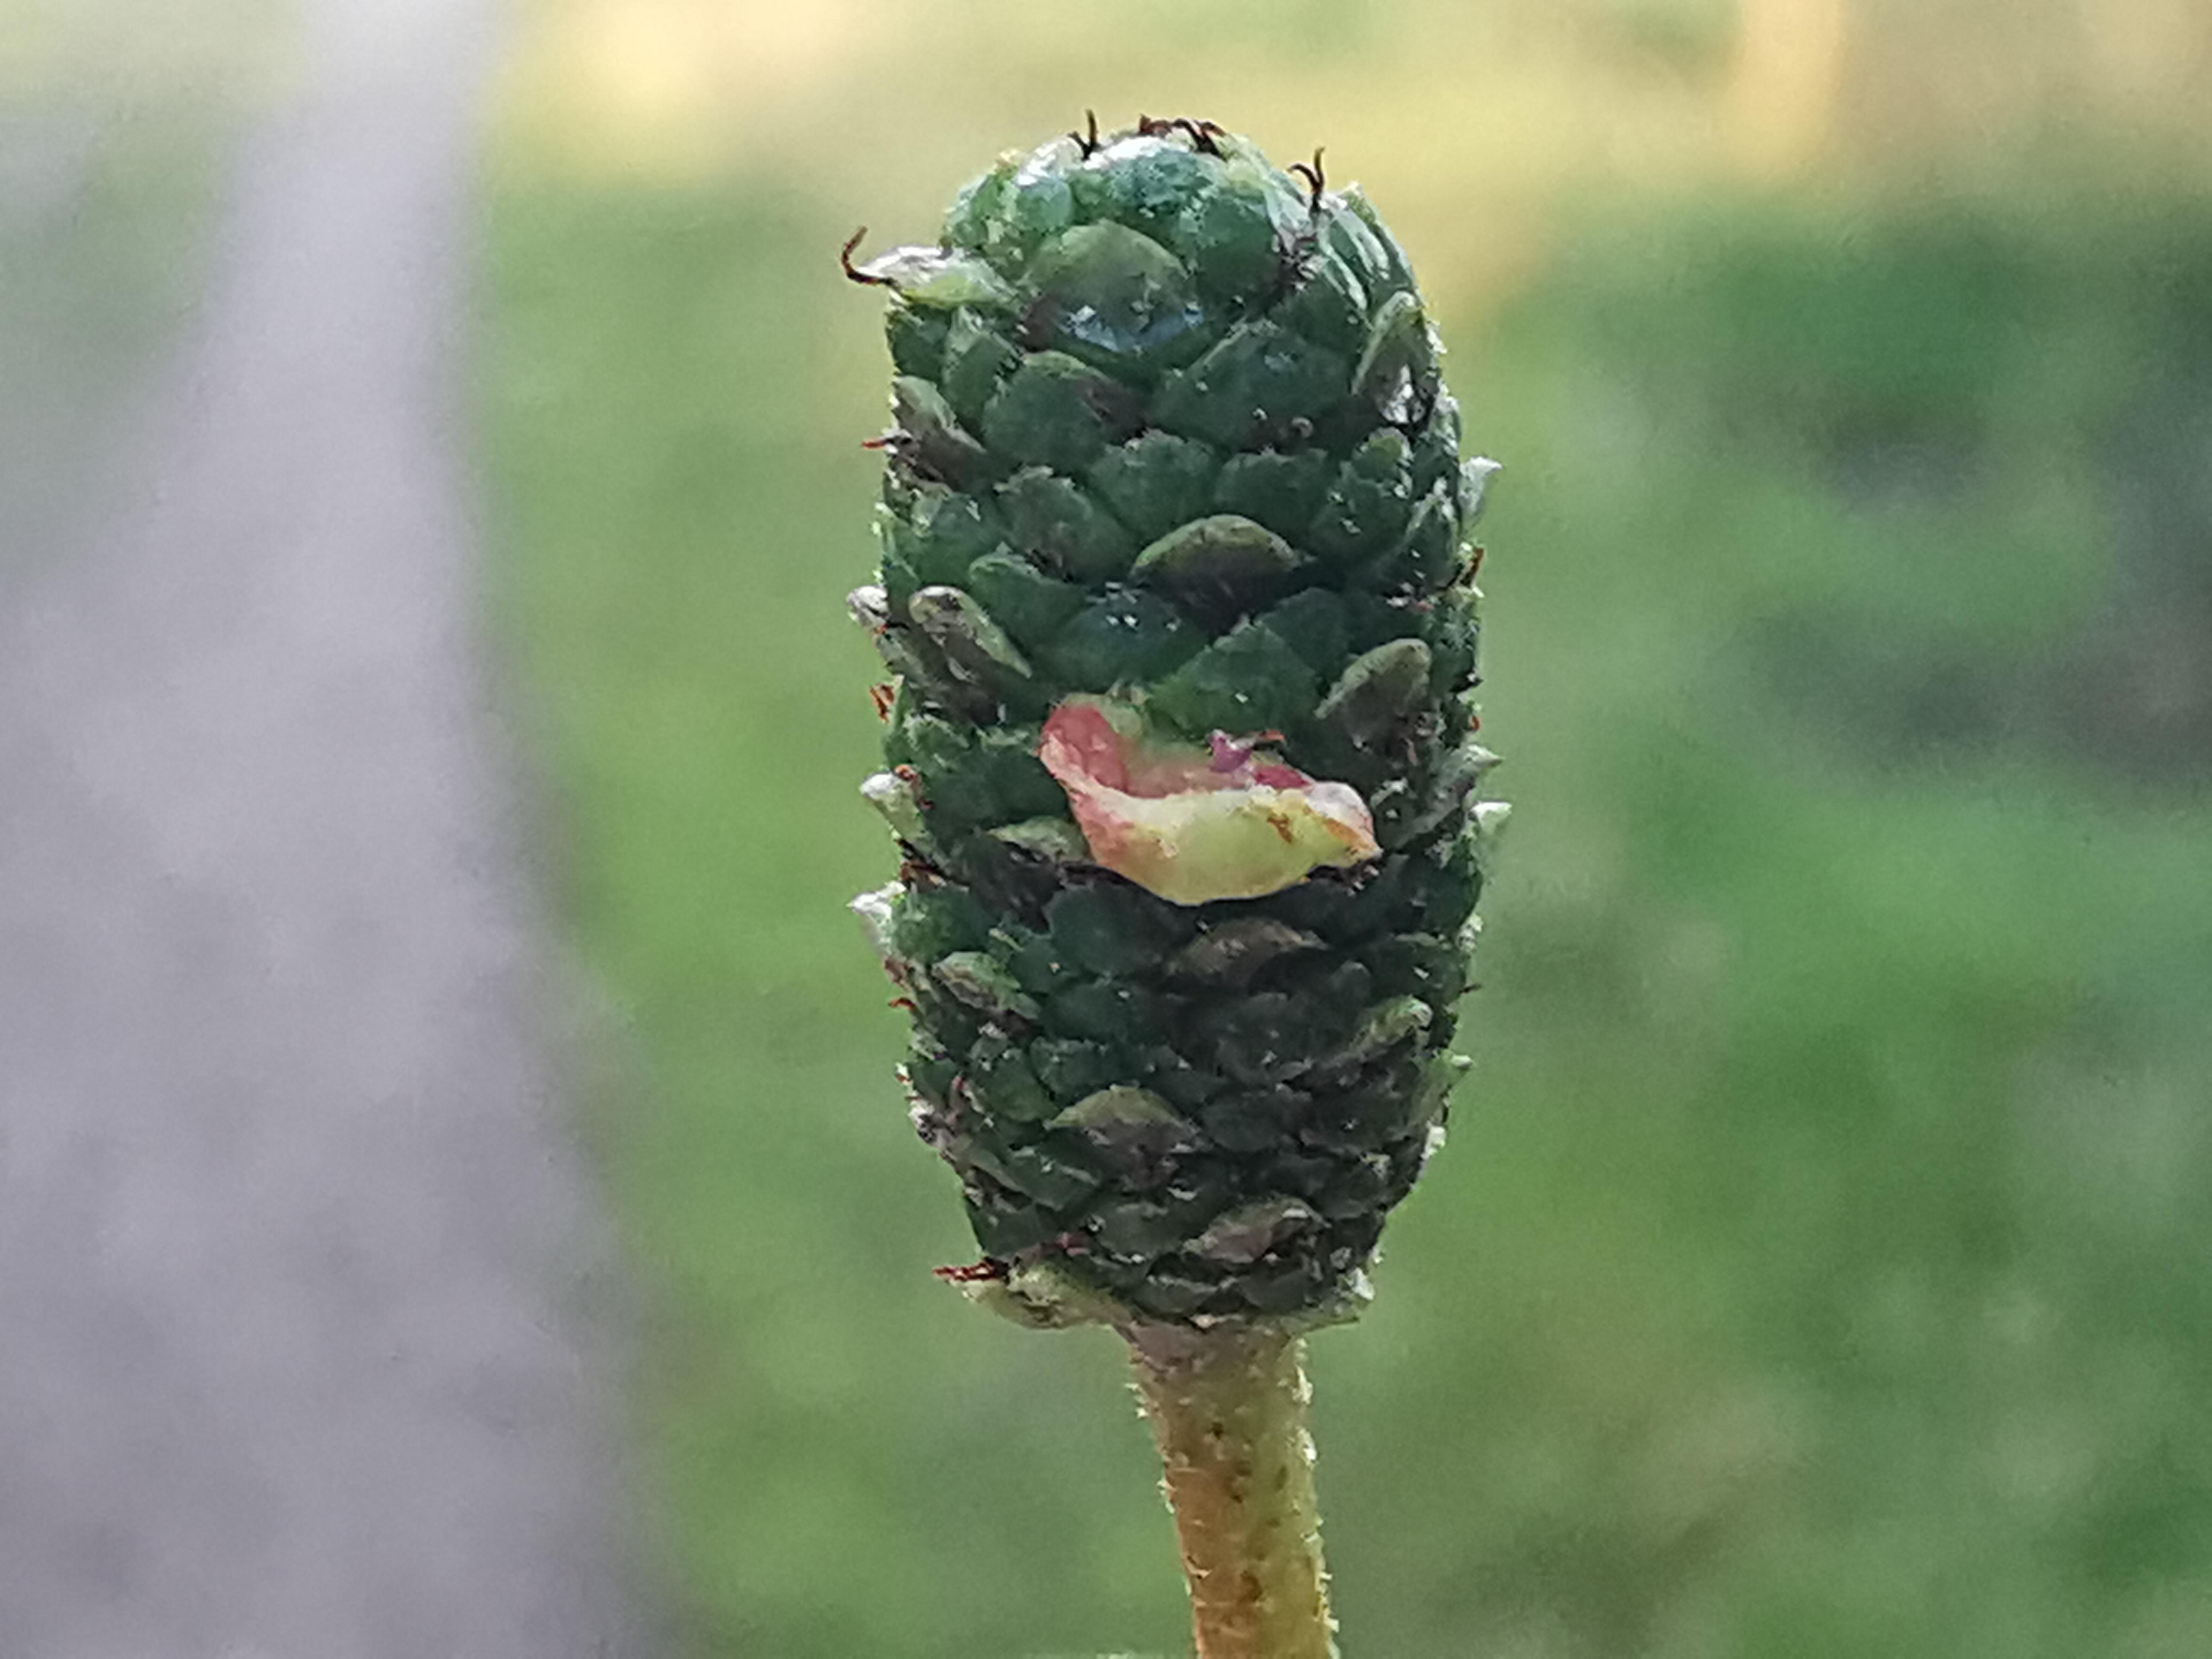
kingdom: Fungi
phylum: Ascomycota
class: Taphrinomycetes
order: Taphrinales
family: Taphrinaceae
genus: Taphrina
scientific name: Taphrina alni
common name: Alder tongue
